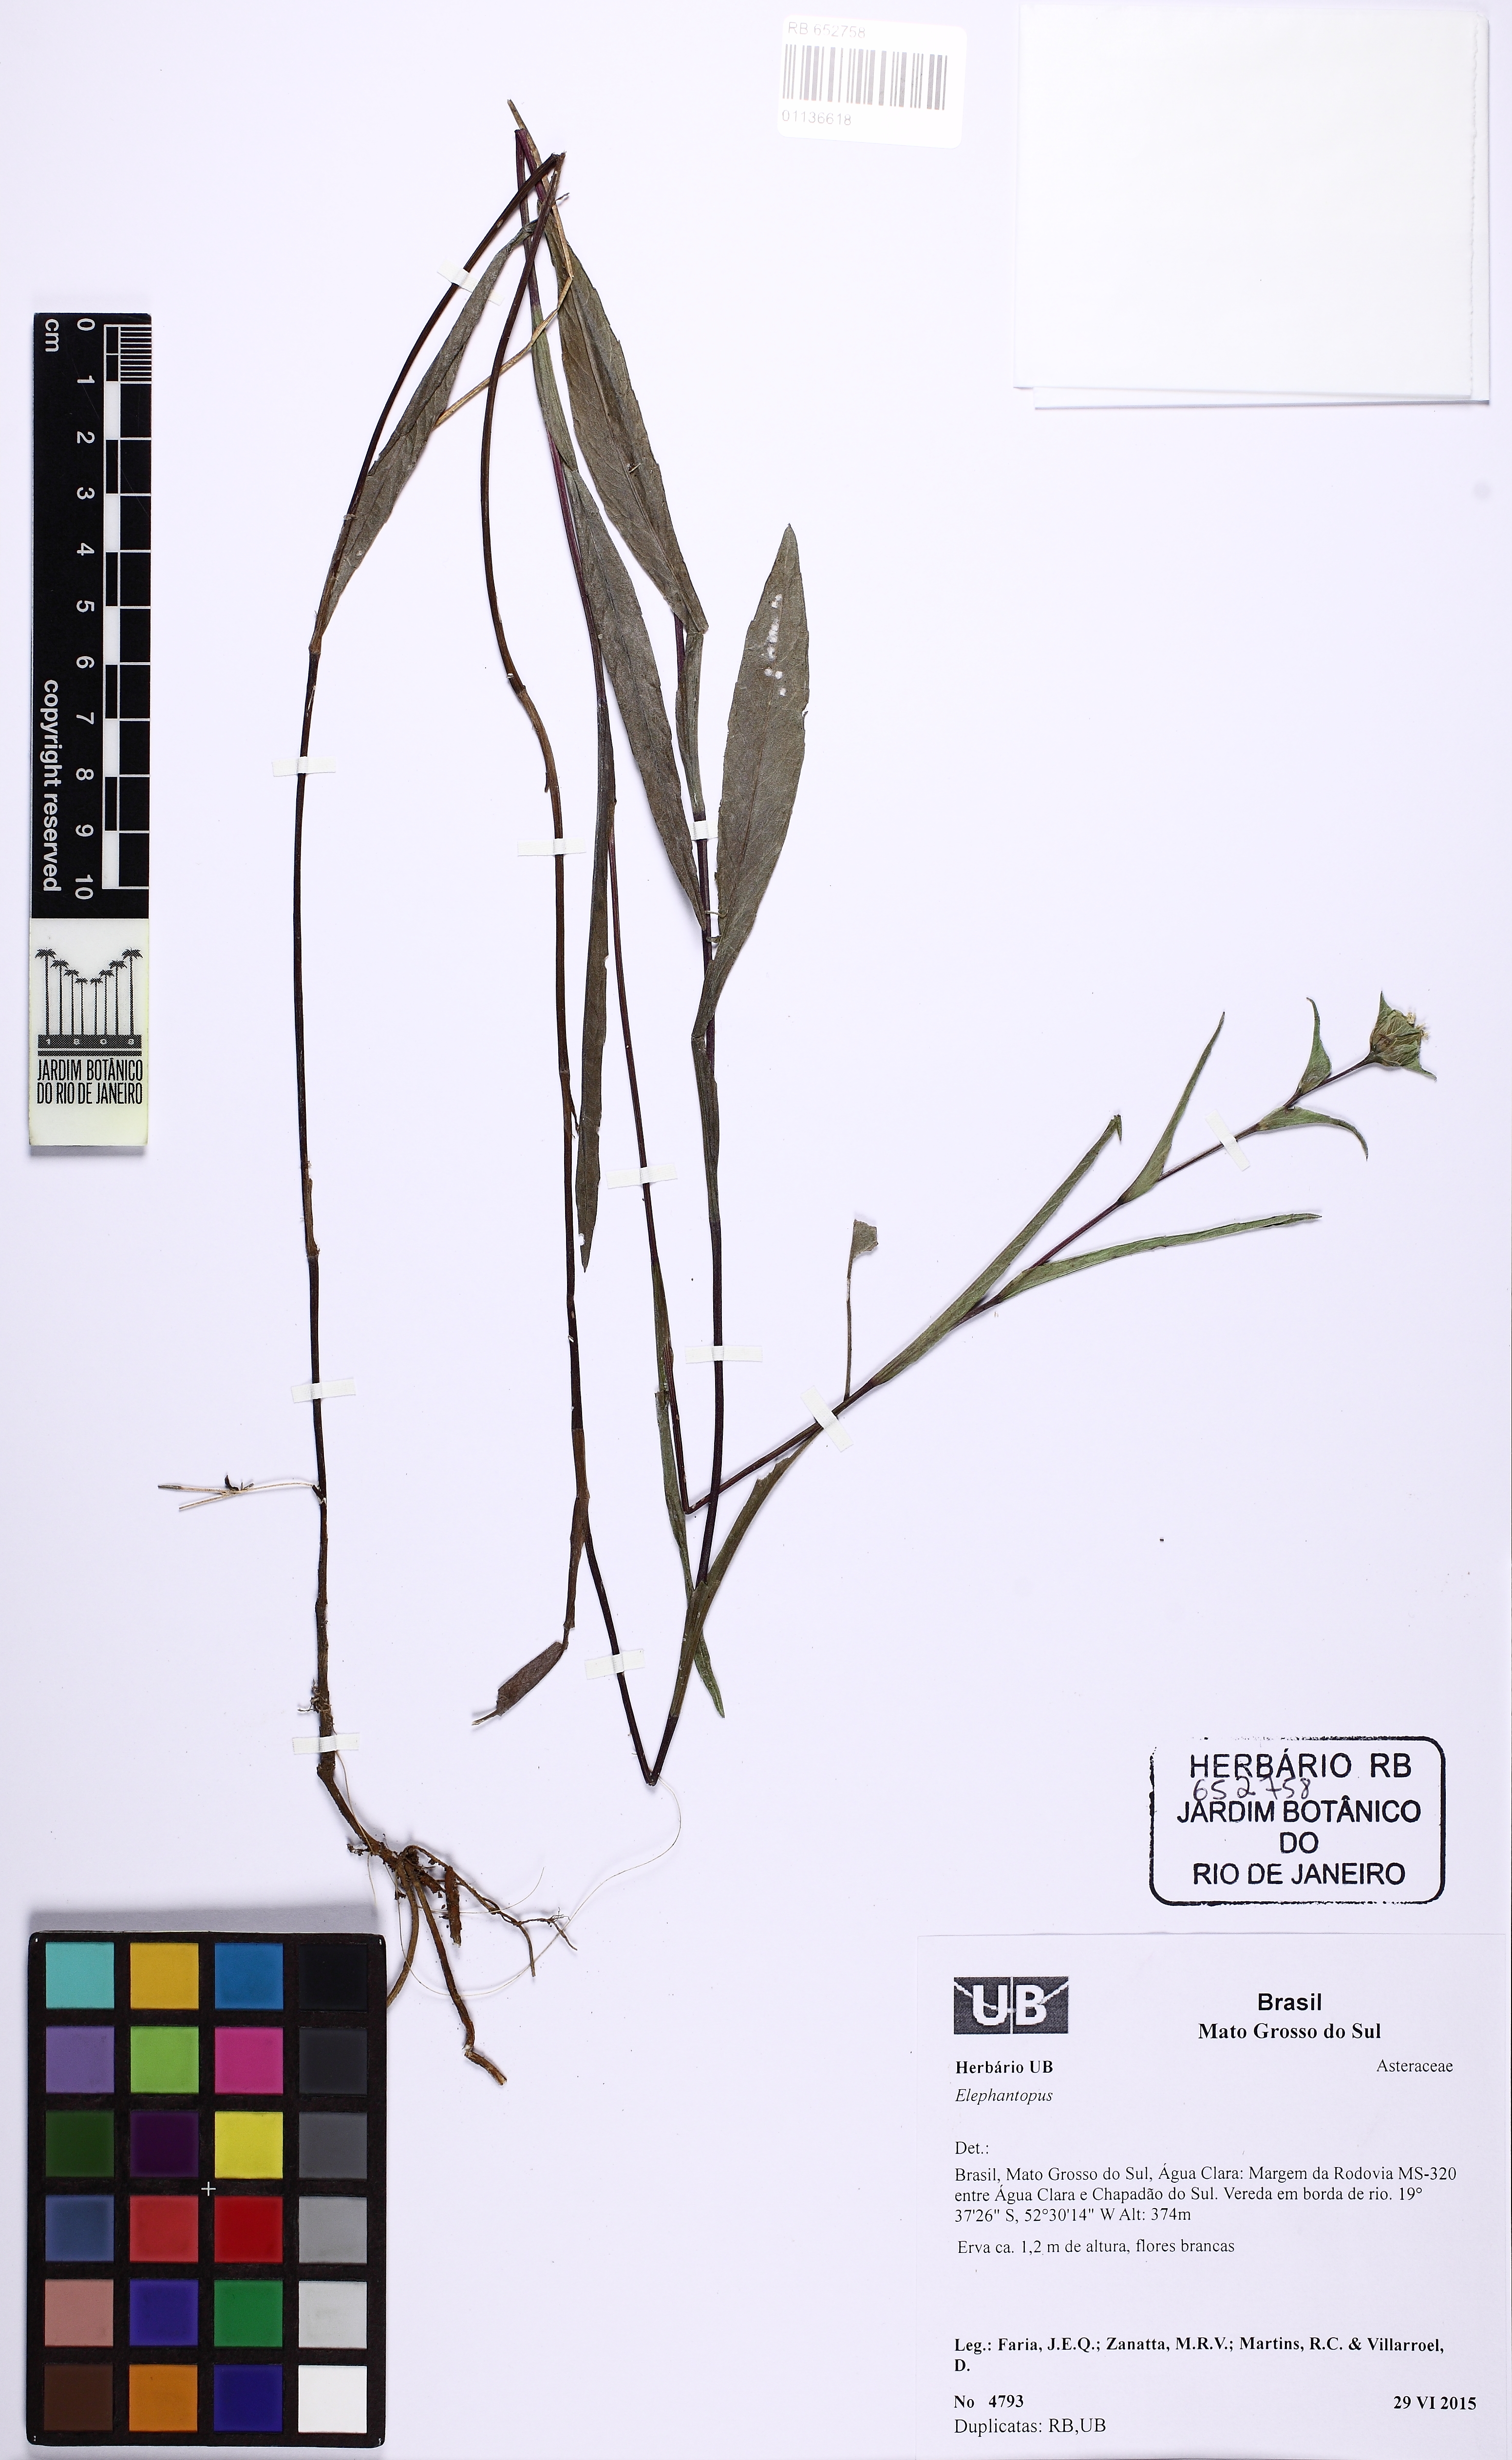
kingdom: Plantae
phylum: Tracheophyta
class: Magnoliopsida
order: Asterales
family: Asteraceae
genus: Elephantopus
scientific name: Elephantopus palustris
